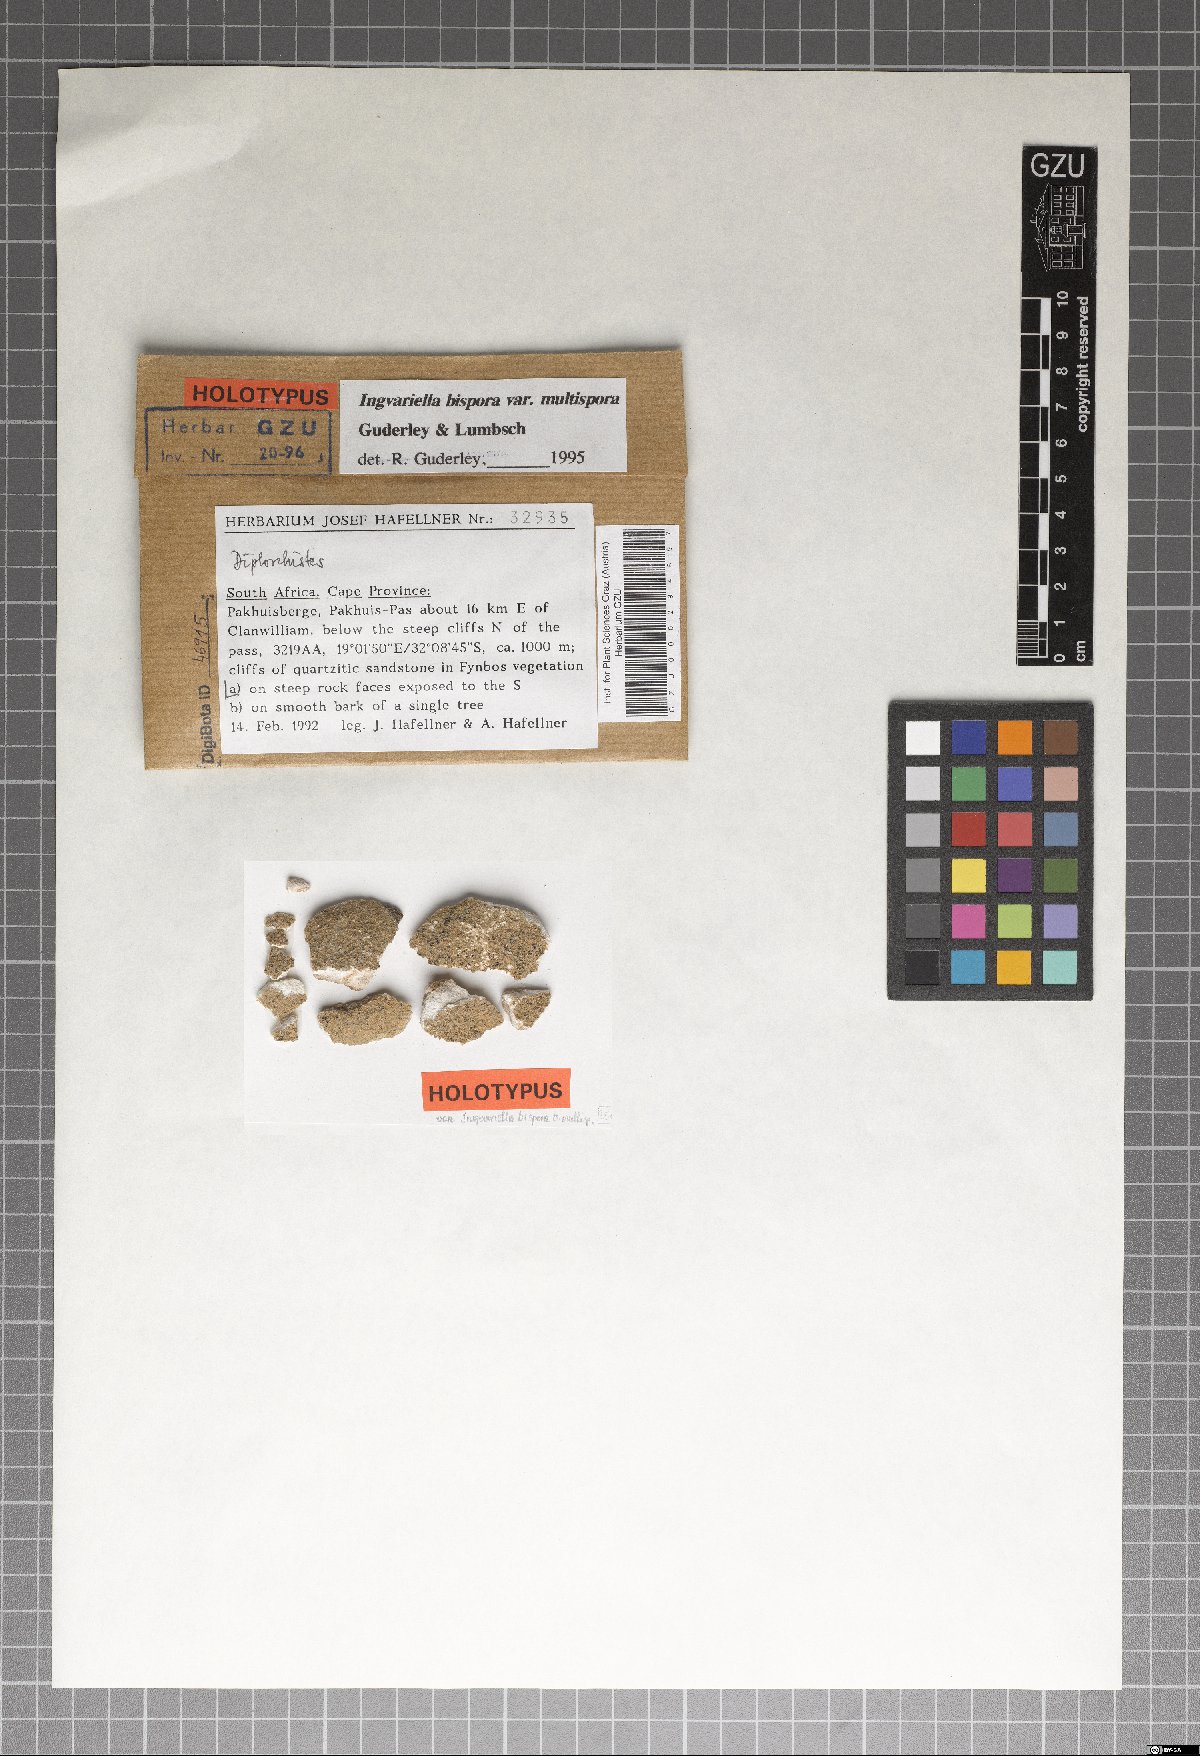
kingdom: Fungi
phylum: Ascomycota
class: Lecanoromycetes
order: Ostropales
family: Stictidaceae
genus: Ingvariella
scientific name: Ingvariella bispora
